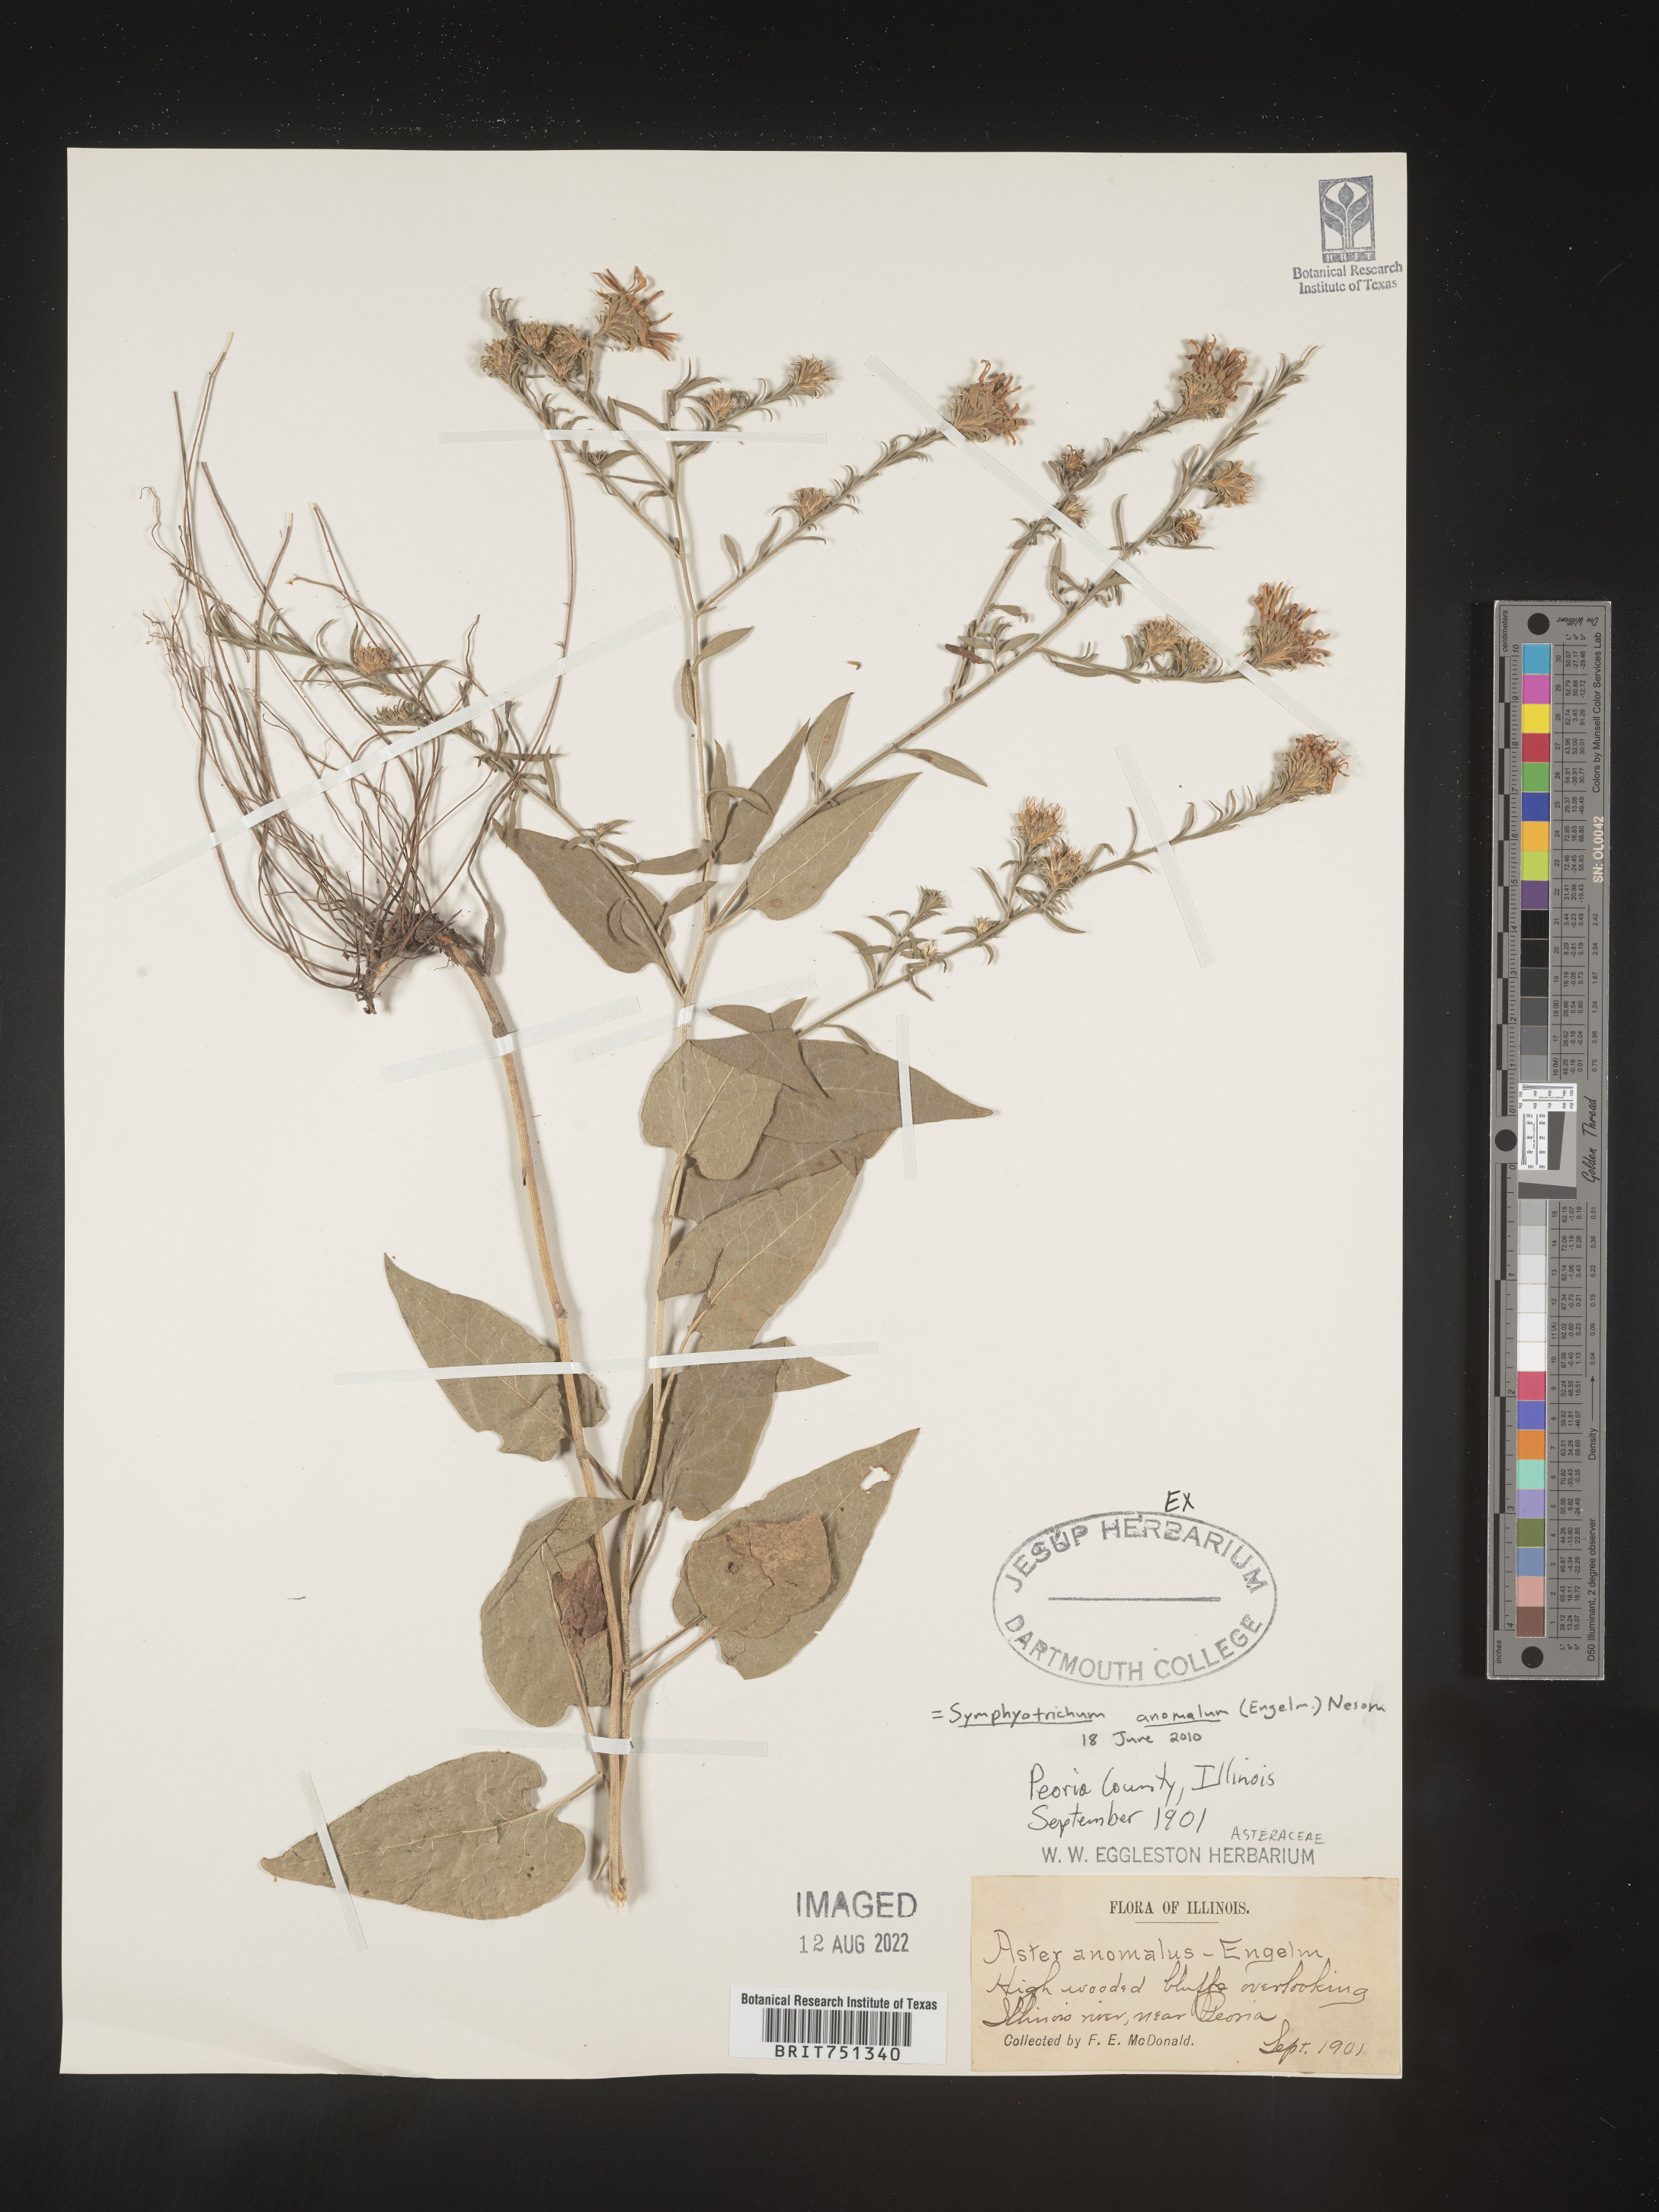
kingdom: Plantae
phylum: Tracheophyta
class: Magnoliopsida
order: Asterales
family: Asteraceae
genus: Symphyotrichum
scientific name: Symphyotrichum anomalum
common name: Many-ray aster
